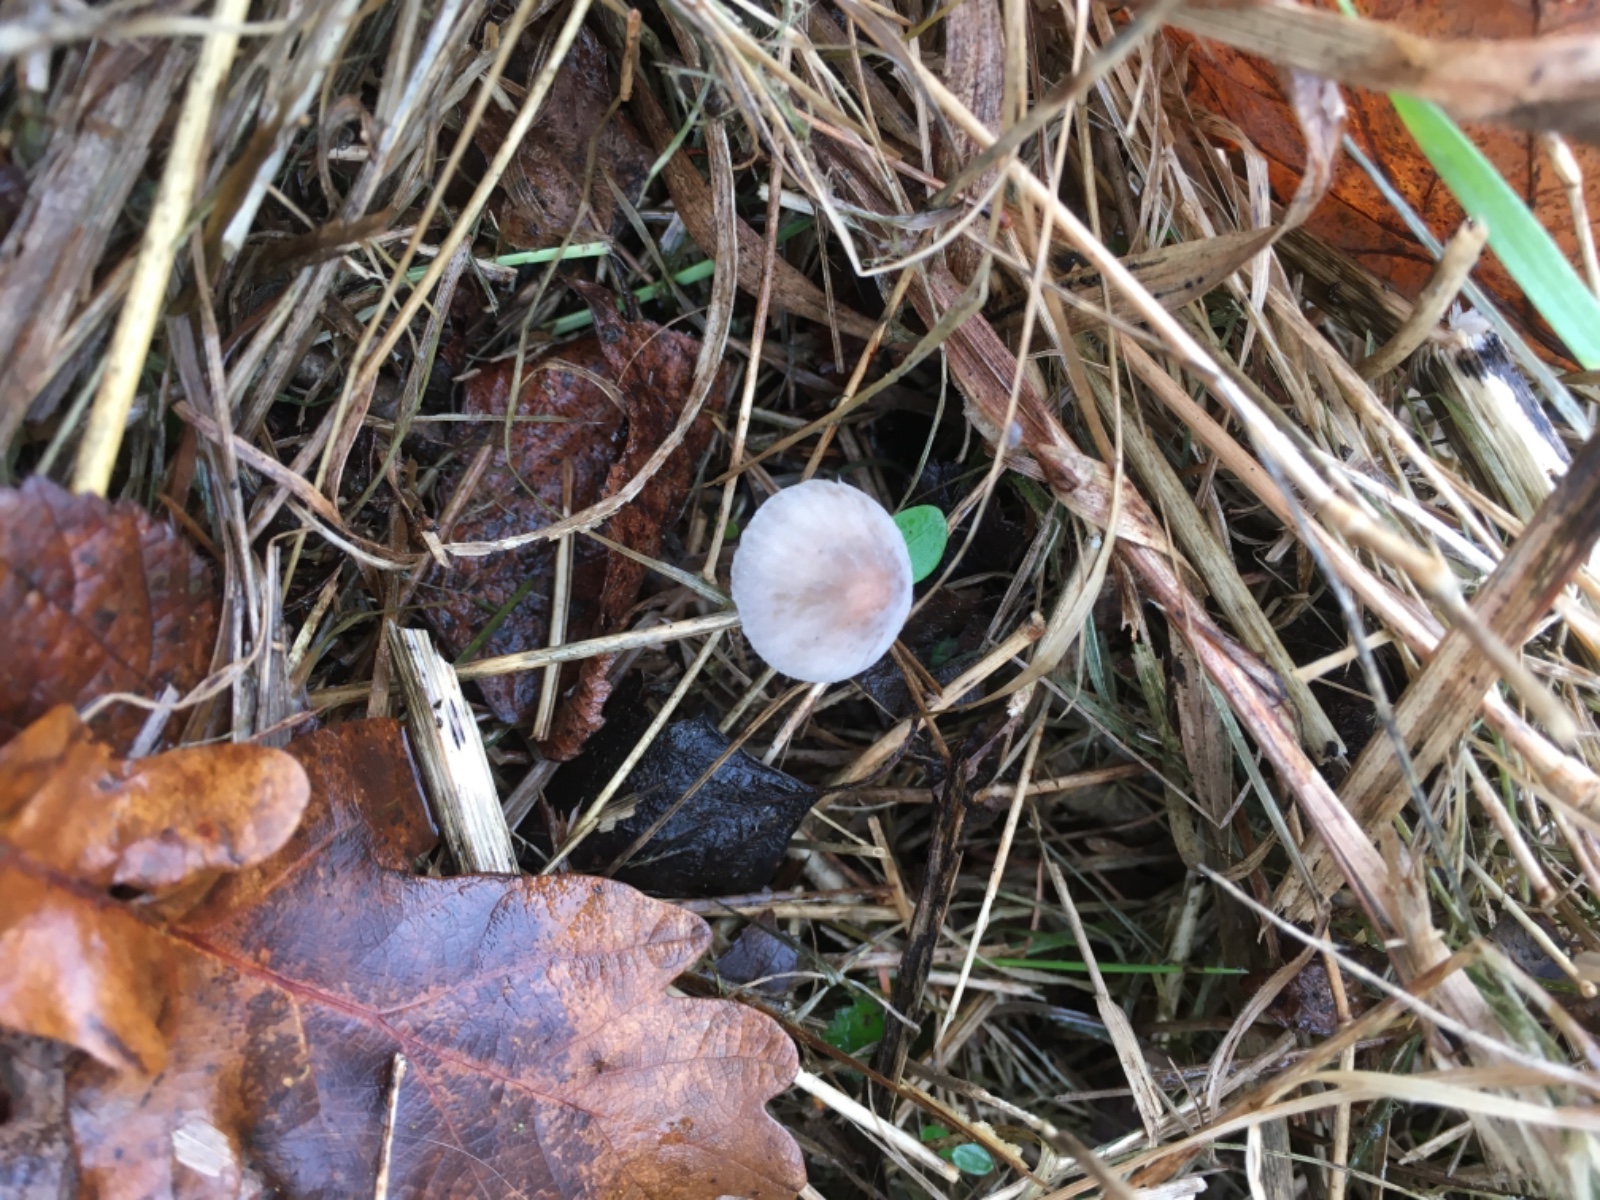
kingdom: Fungi
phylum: Basidiomycota
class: Agaricomycetes
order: Agaricales
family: Mycenaceae
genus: Mycena
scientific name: Mycena filopes
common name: jod-huesvamp
